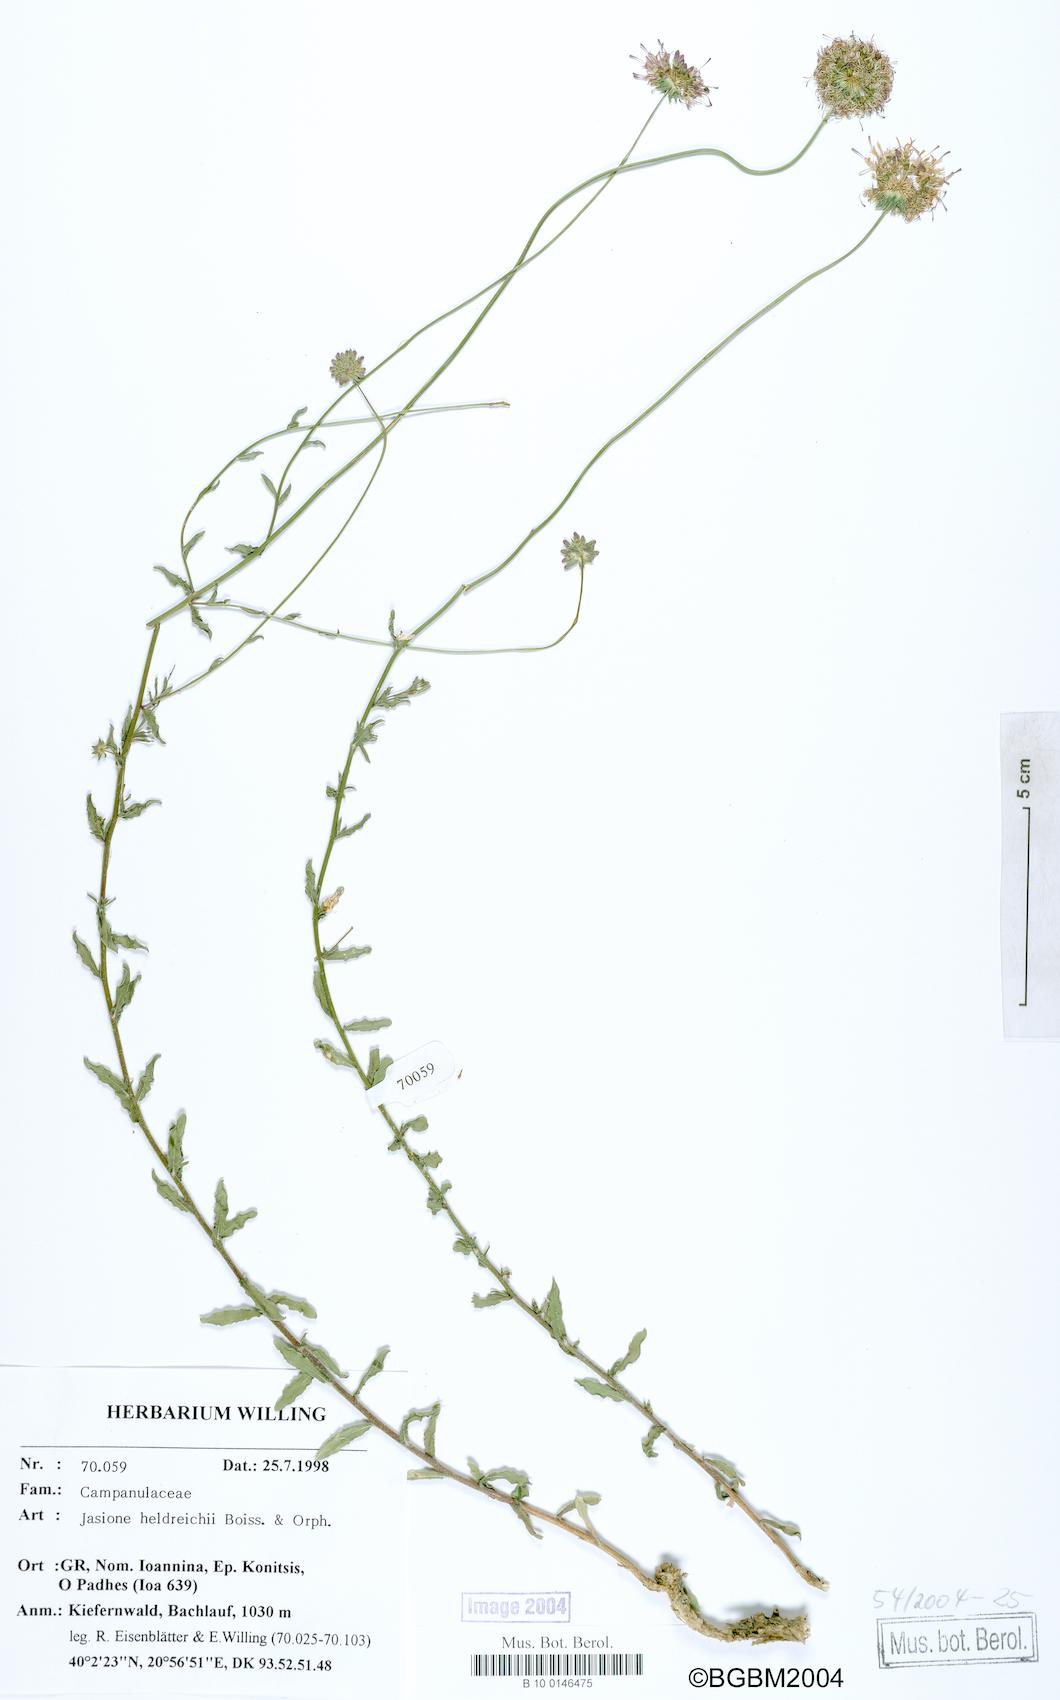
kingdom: Plantae
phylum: Tracheophyta
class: Magnoliopsida
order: Asterales
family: Campanulaceae
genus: Jasione
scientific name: Jasione heldreichii
